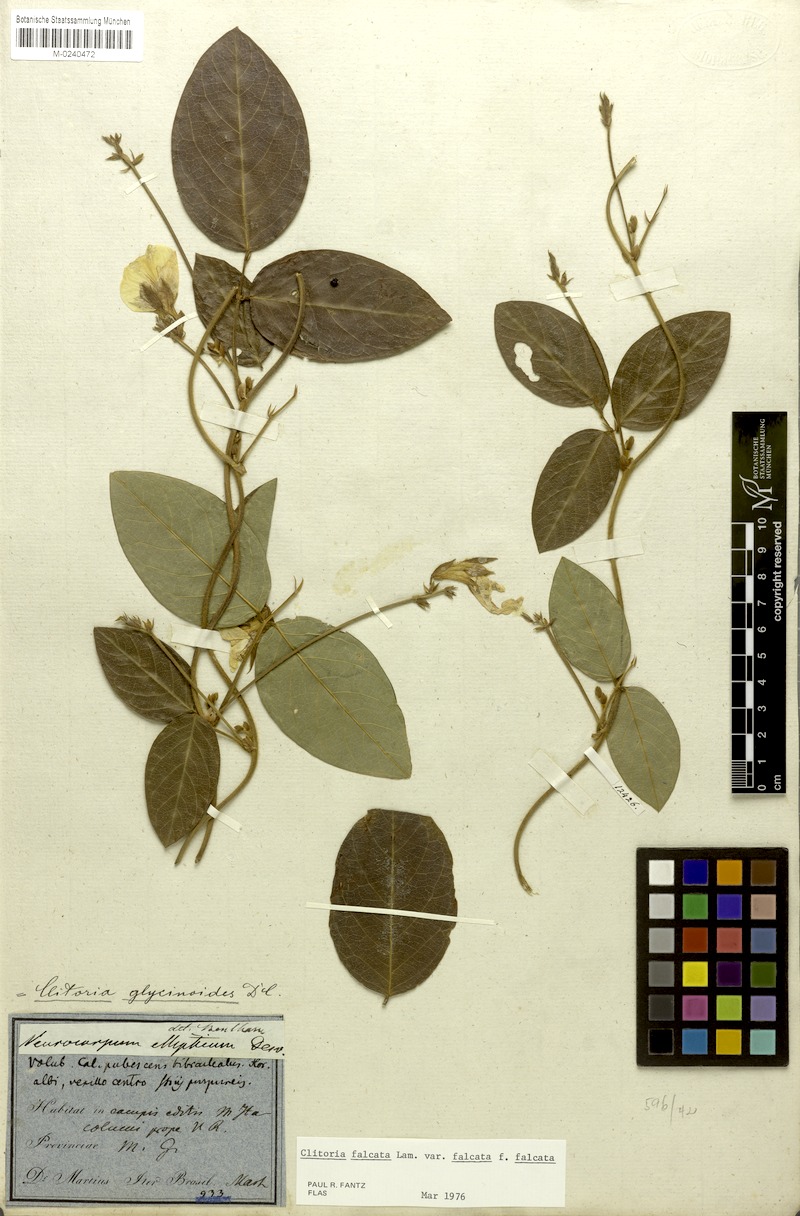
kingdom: Plantae
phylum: Tracheophyta
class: Magnoliopsida
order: Fabales
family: Fabaceae
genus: Clitoria
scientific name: Clitoria falcata
